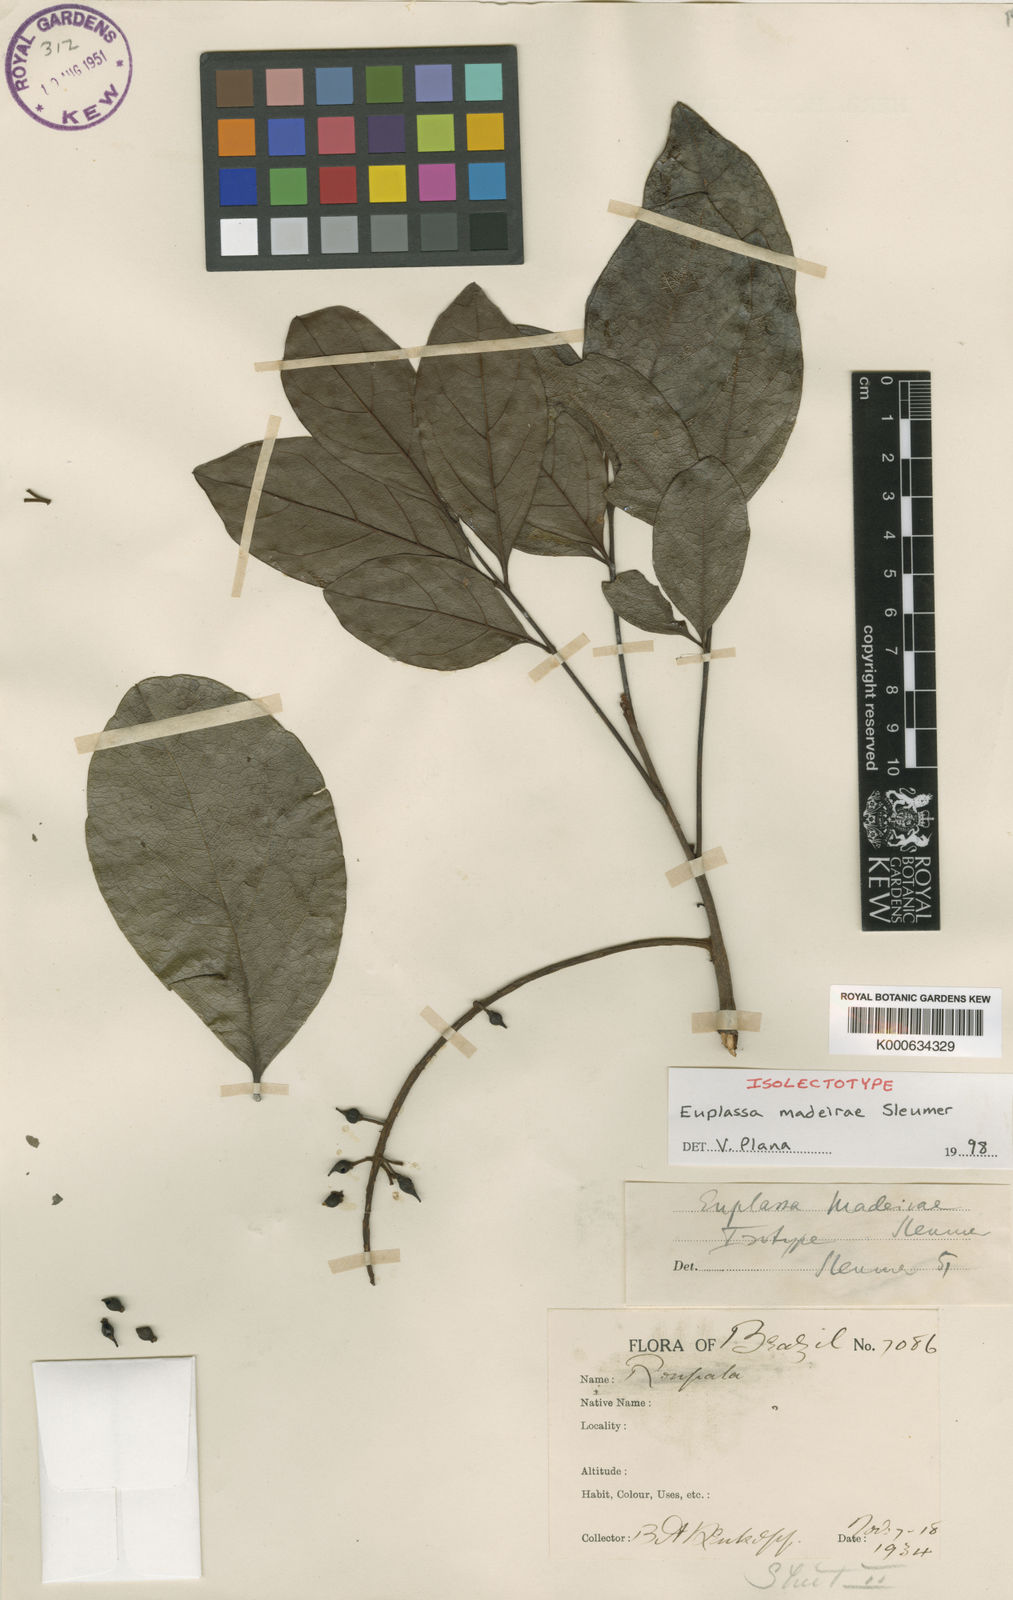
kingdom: Plantae
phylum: Tracheophyta
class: Magnoliopsida
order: Proteales
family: Proteaceae
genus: Euplassa
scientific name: Euplassa madeirae
